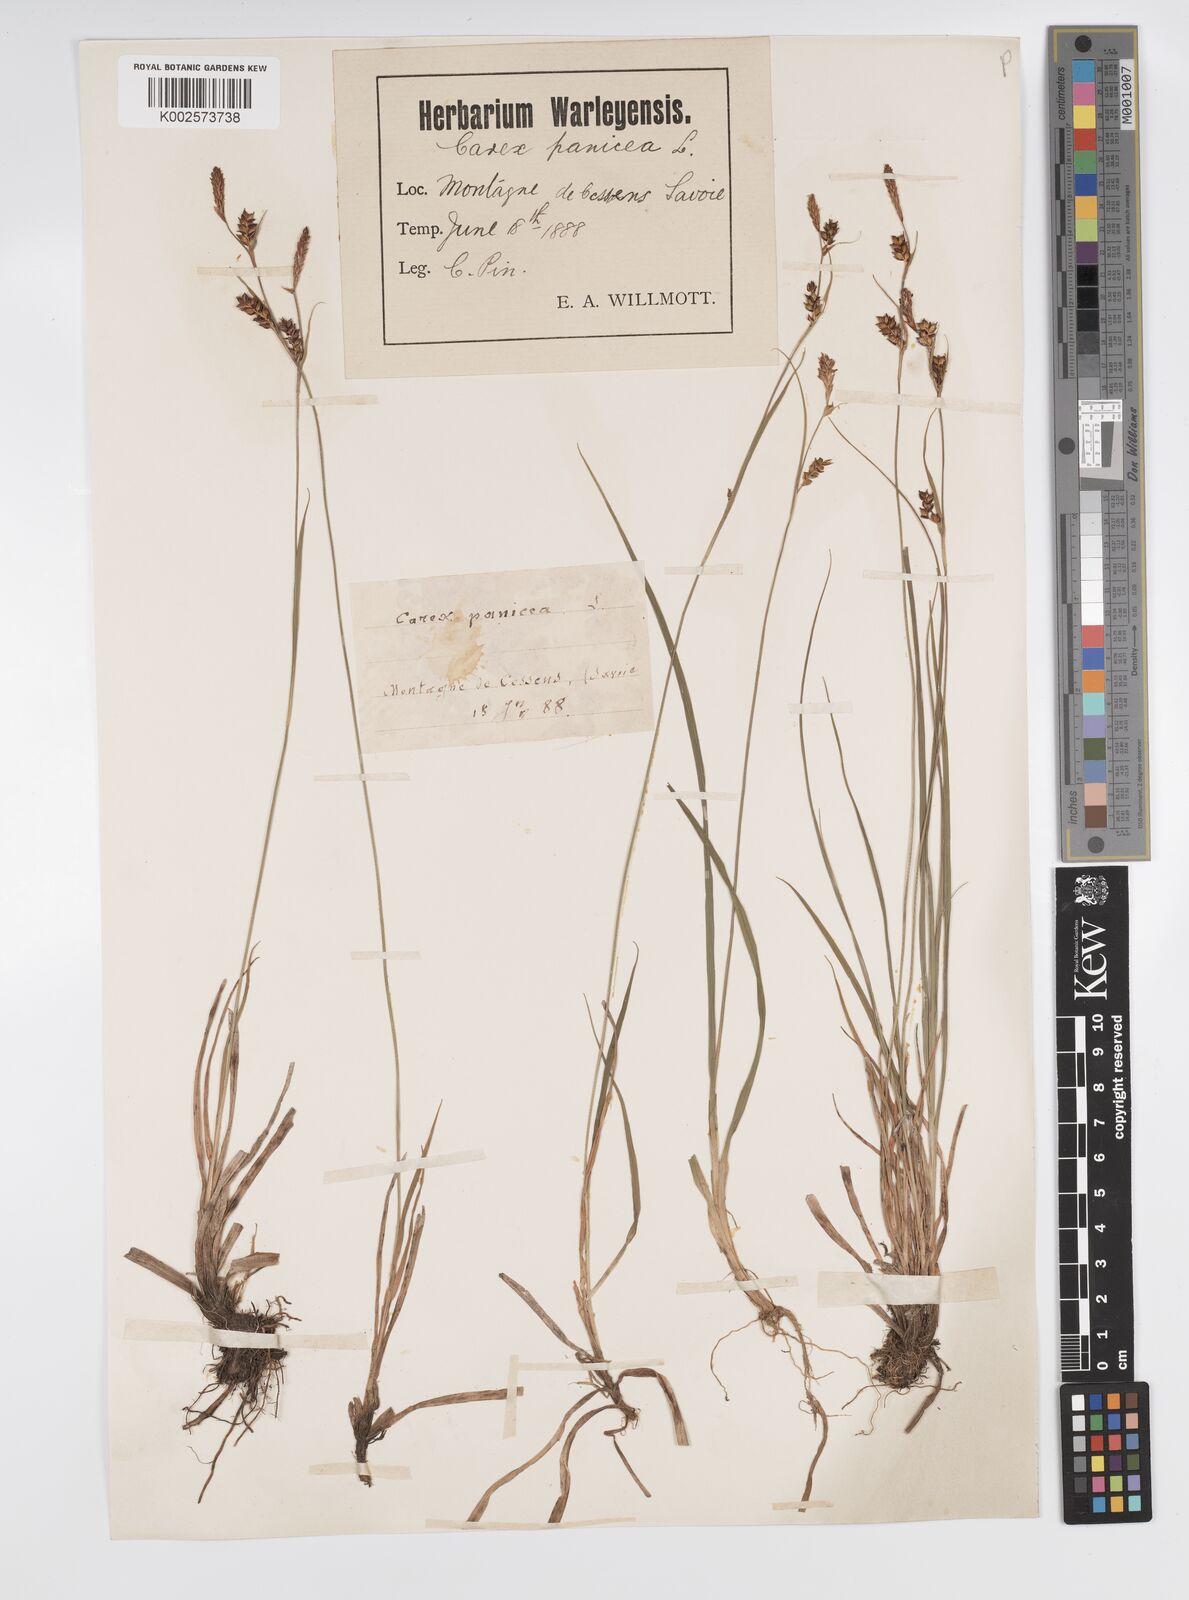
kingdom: Plantae
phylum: Tracheophyta
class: Liliopsida
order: Poales
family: Cyperaceae
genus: Carex
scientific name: Carex panicea
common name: Carnation sedge
